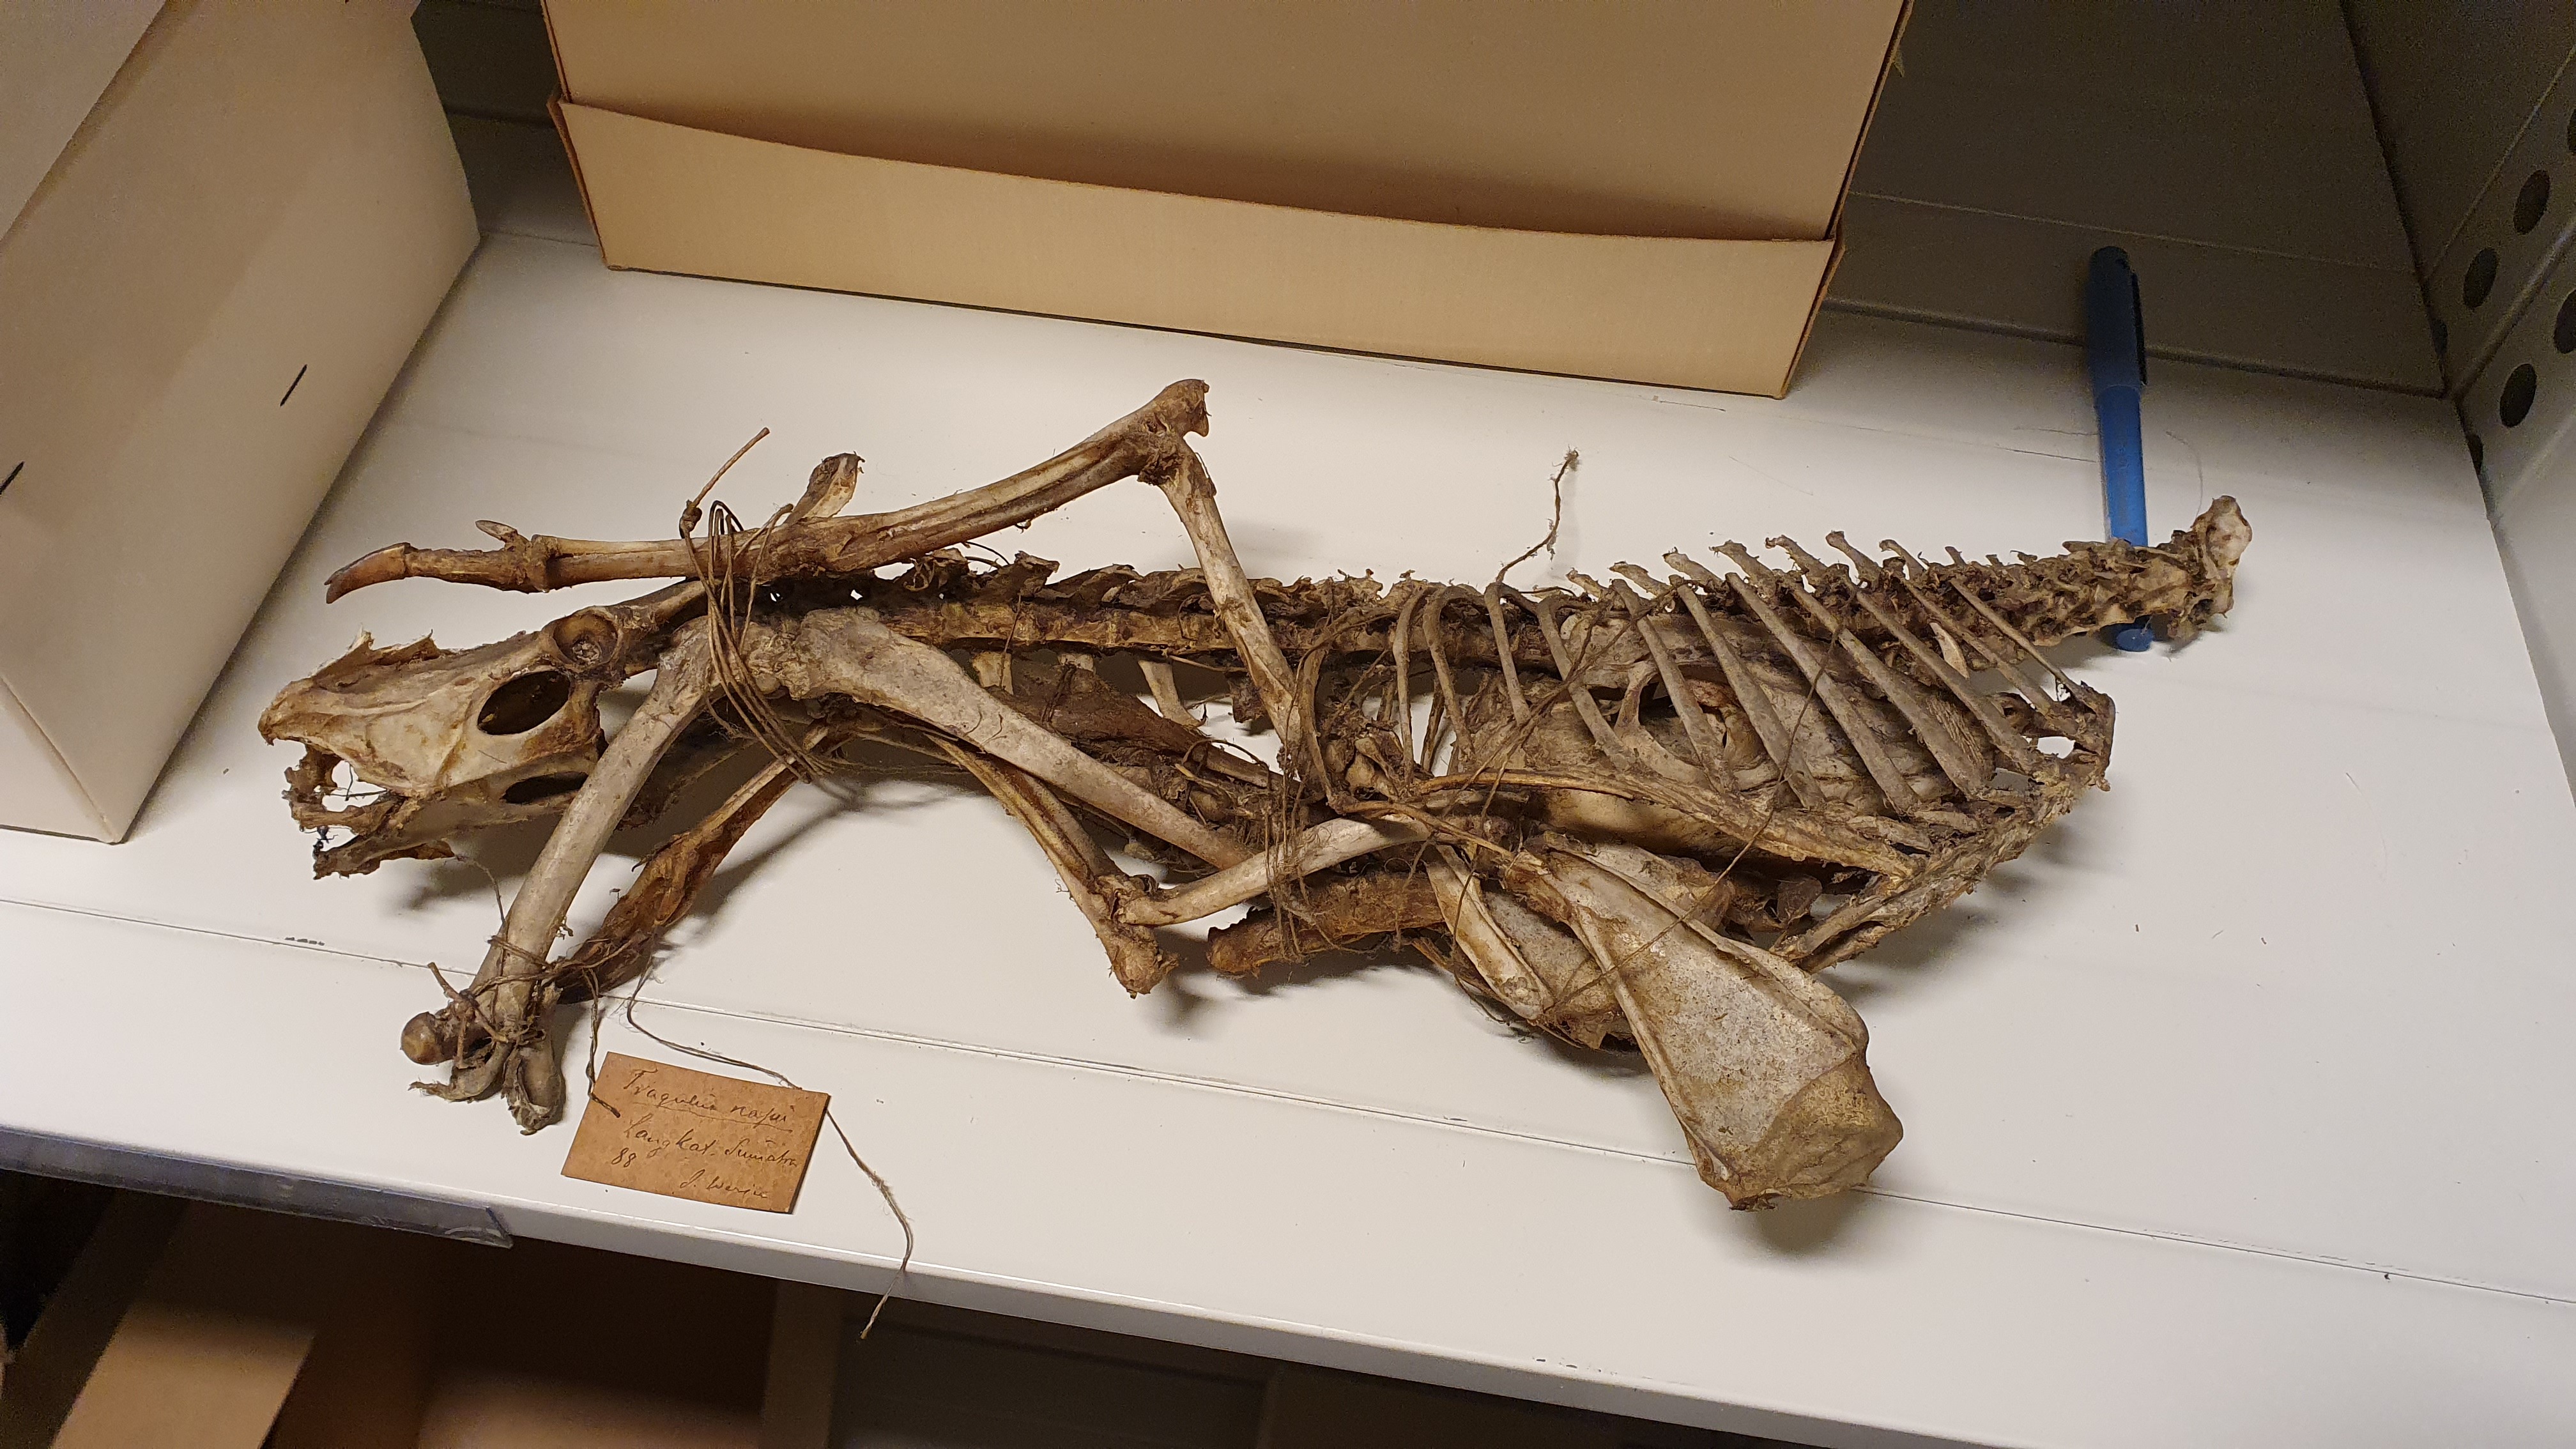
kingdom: Animalia
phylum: Chordata
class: Mammalia
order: Artiodactyla
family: Tragulidae
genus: Tragulus
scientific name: Tragulus napu
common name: Greater mouse-deer
